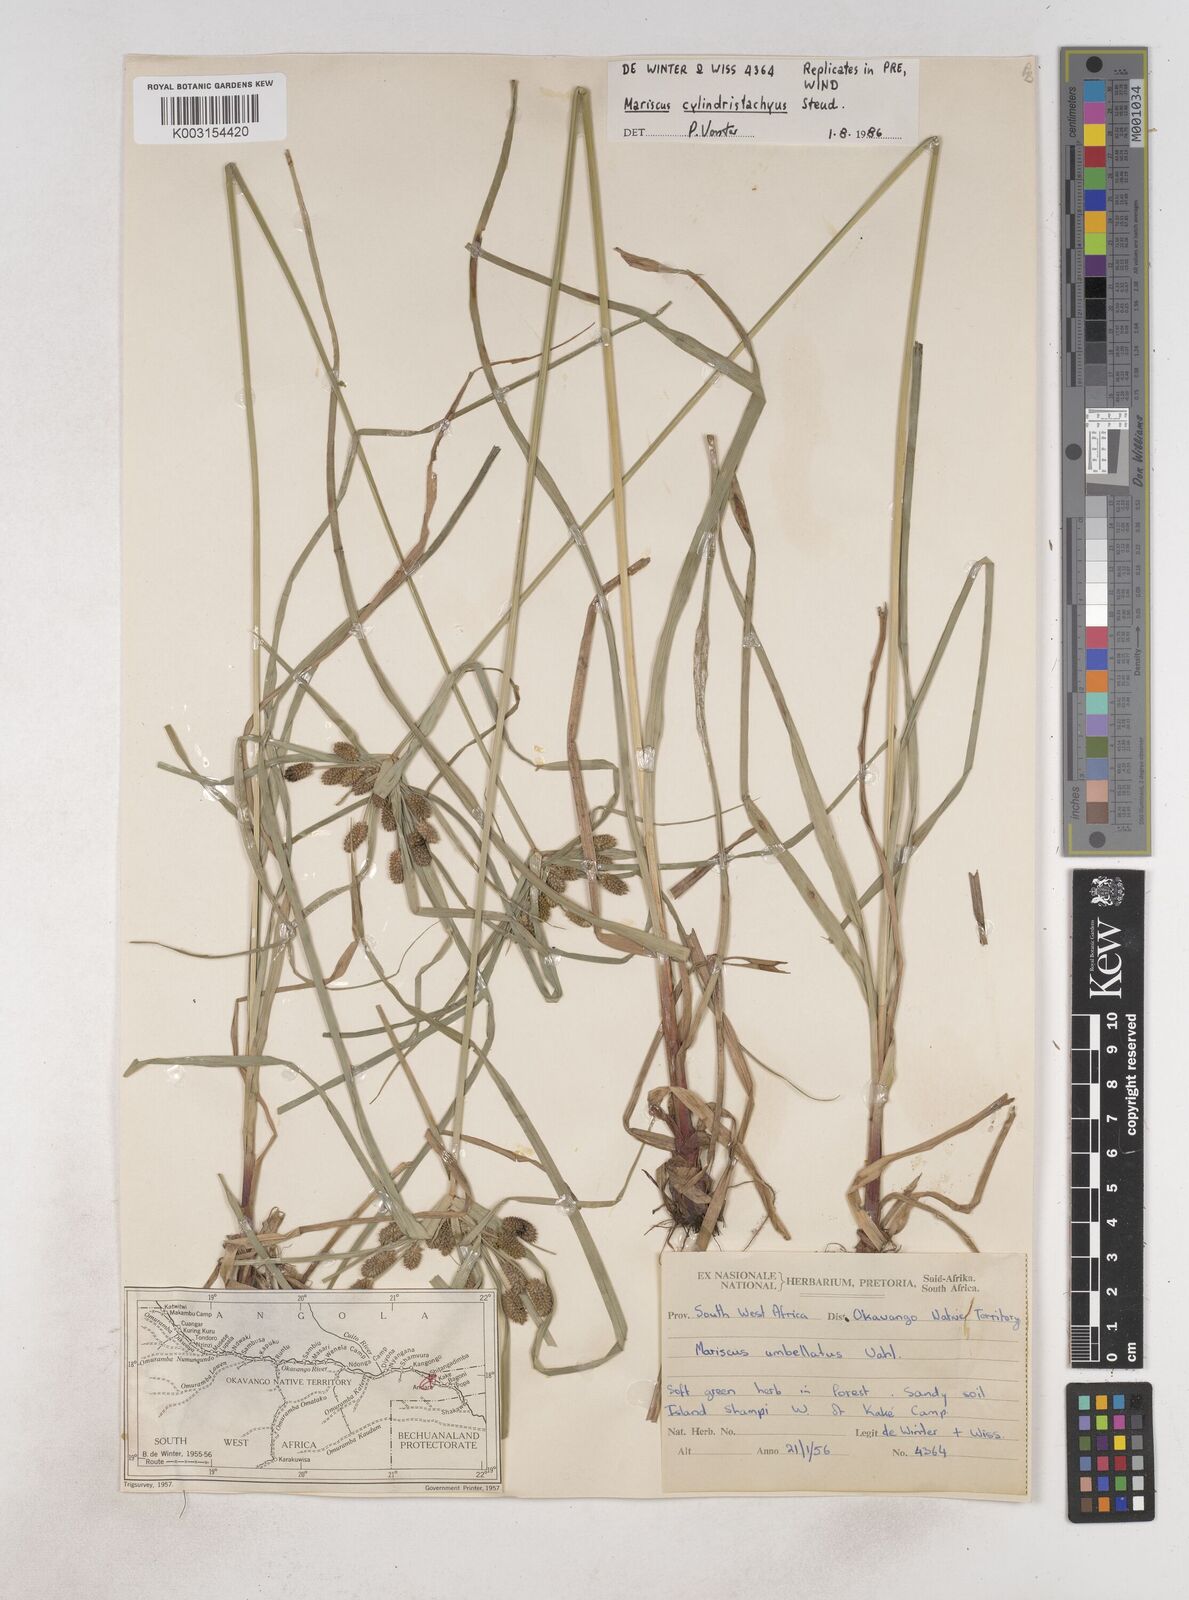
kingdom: Plantae
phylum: Tracheophyta
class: Liliopsida
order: Poales
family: Cyperaceae
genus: Cyperus
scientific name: Cyperus
